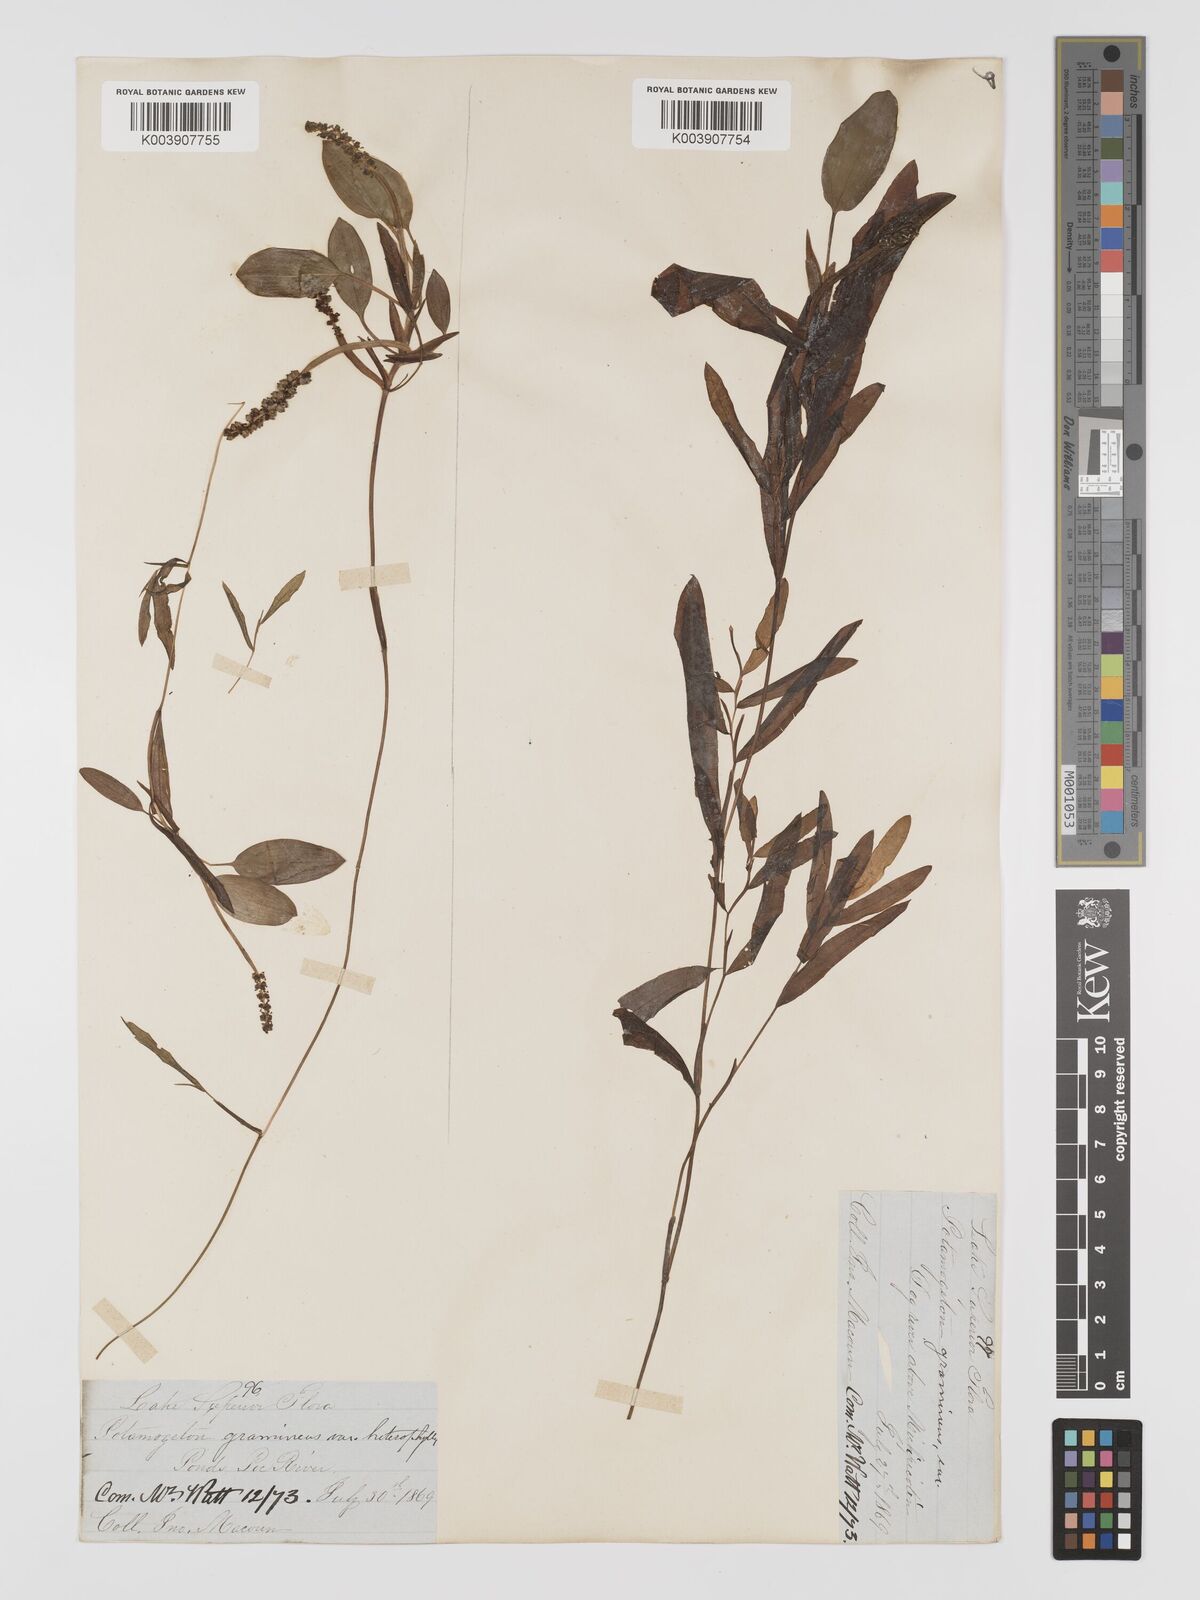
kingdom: Plantae
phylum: Tracheophyta
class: Liliopsida
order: Alismatales
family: Potamogetonaceae
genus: Potamogeton
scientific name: Potamogeton gramineus
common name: Various-leaved pondweed
